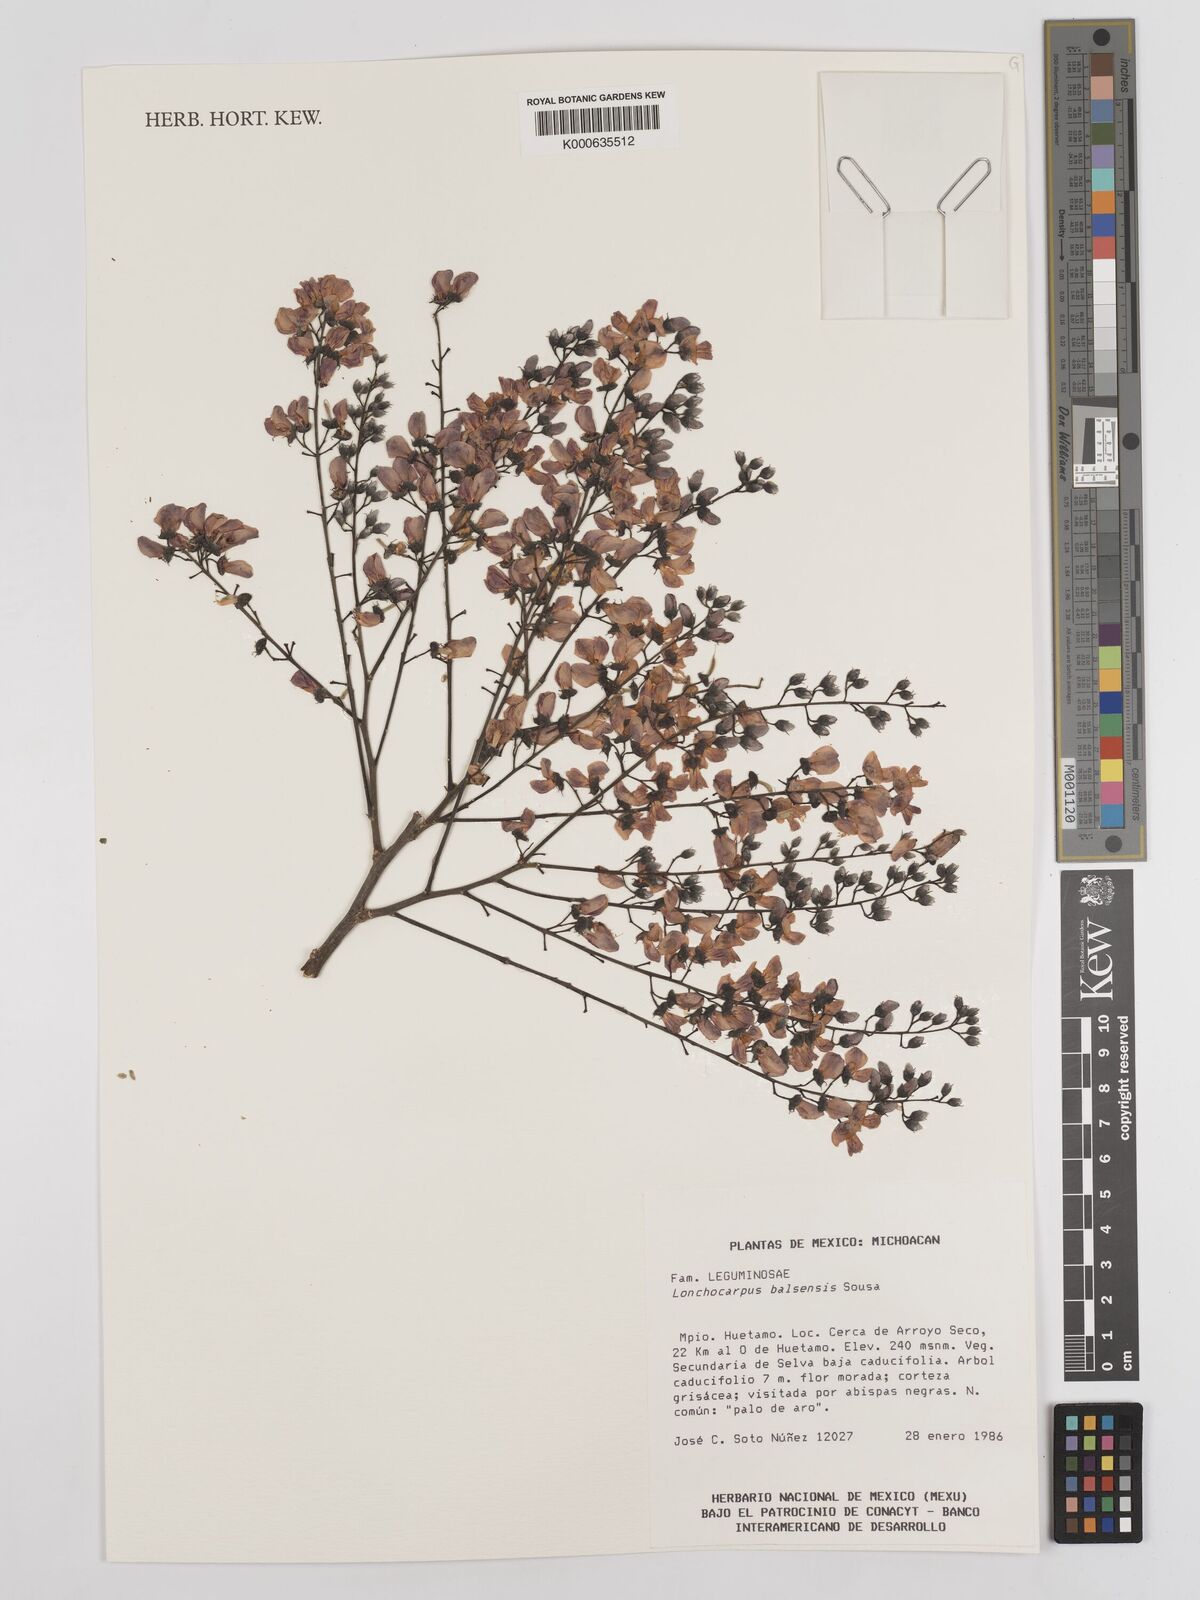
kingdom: Plantae
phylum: Tracheophyta
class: Magnoliopsida
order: Fabales
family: Fabaceae
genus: Lonchocarpus
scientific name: Lonchocarpus balsensis
